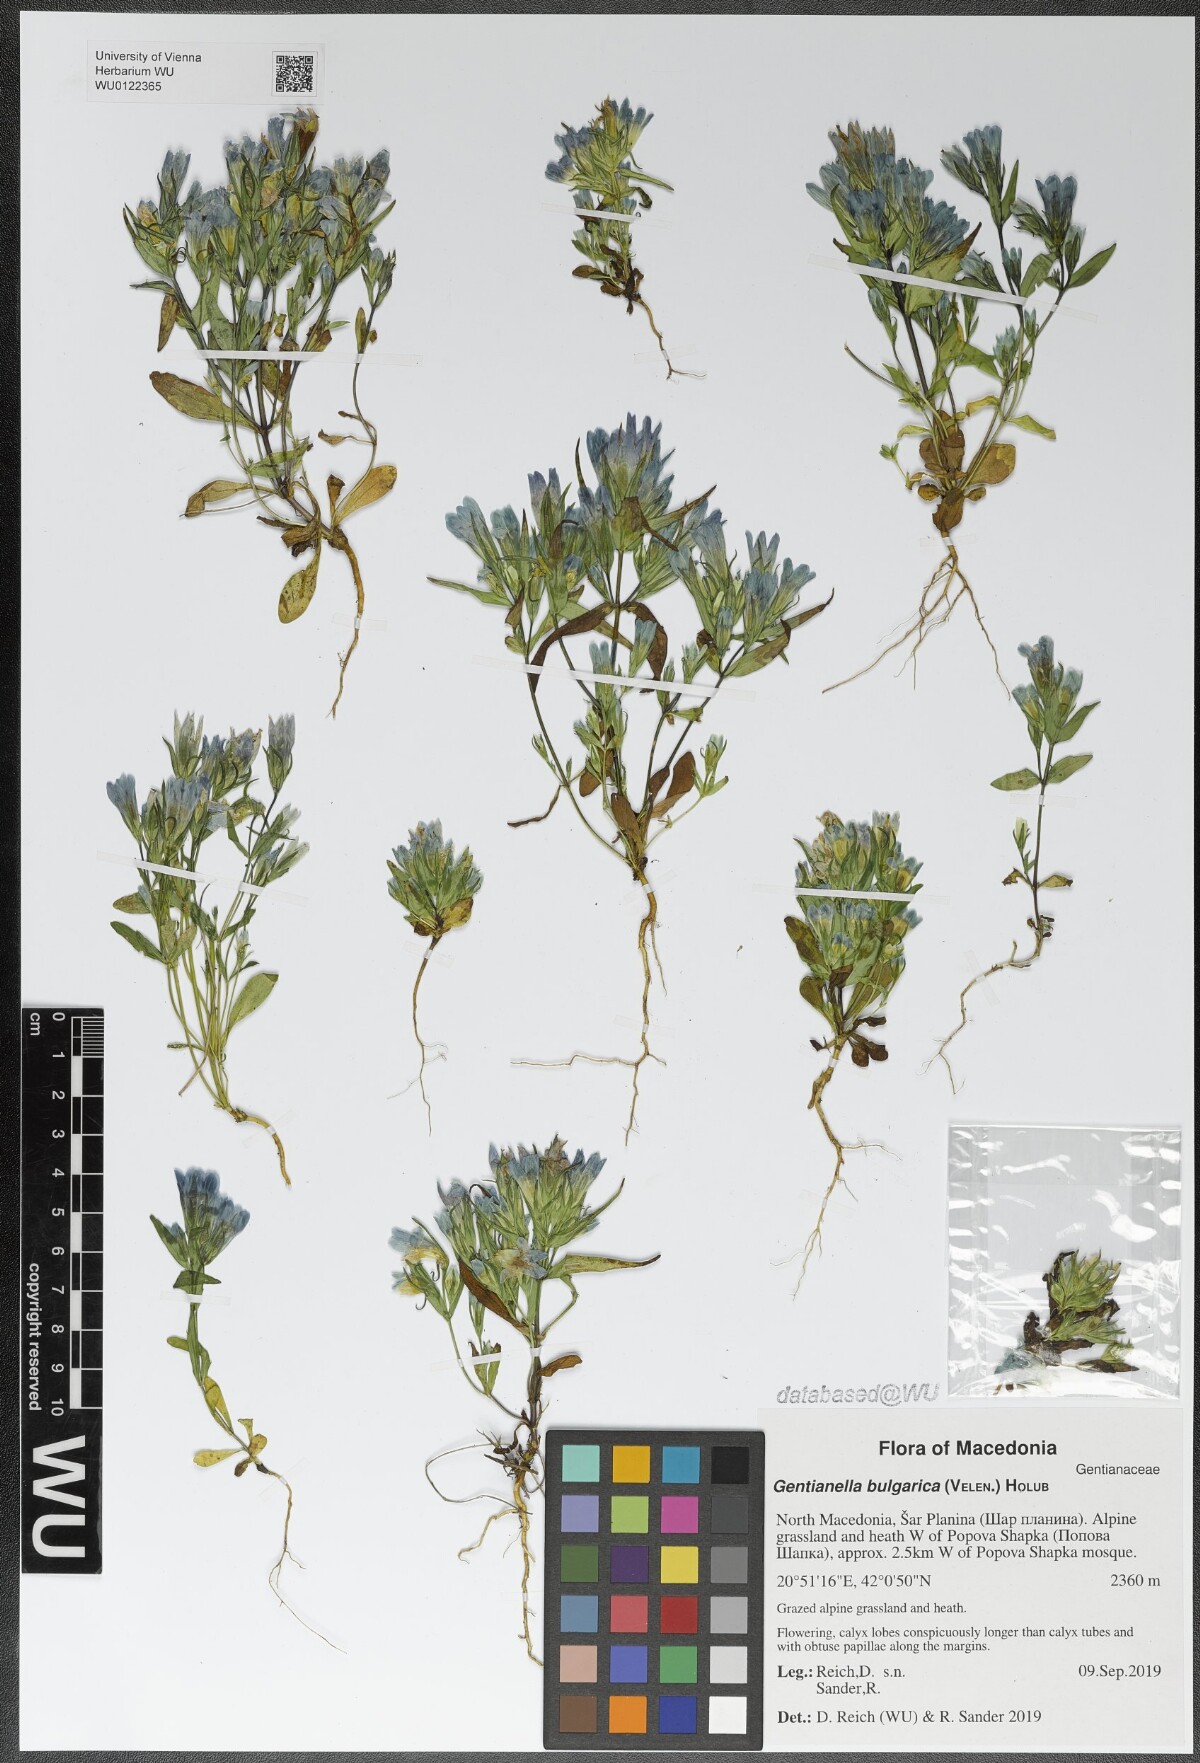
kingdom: Plantae
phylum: Tracheophyta
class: Magnoliopsida
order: Gentianales
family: Gentianaceae
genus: Gentianella
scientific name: Gentianella bulgarica
